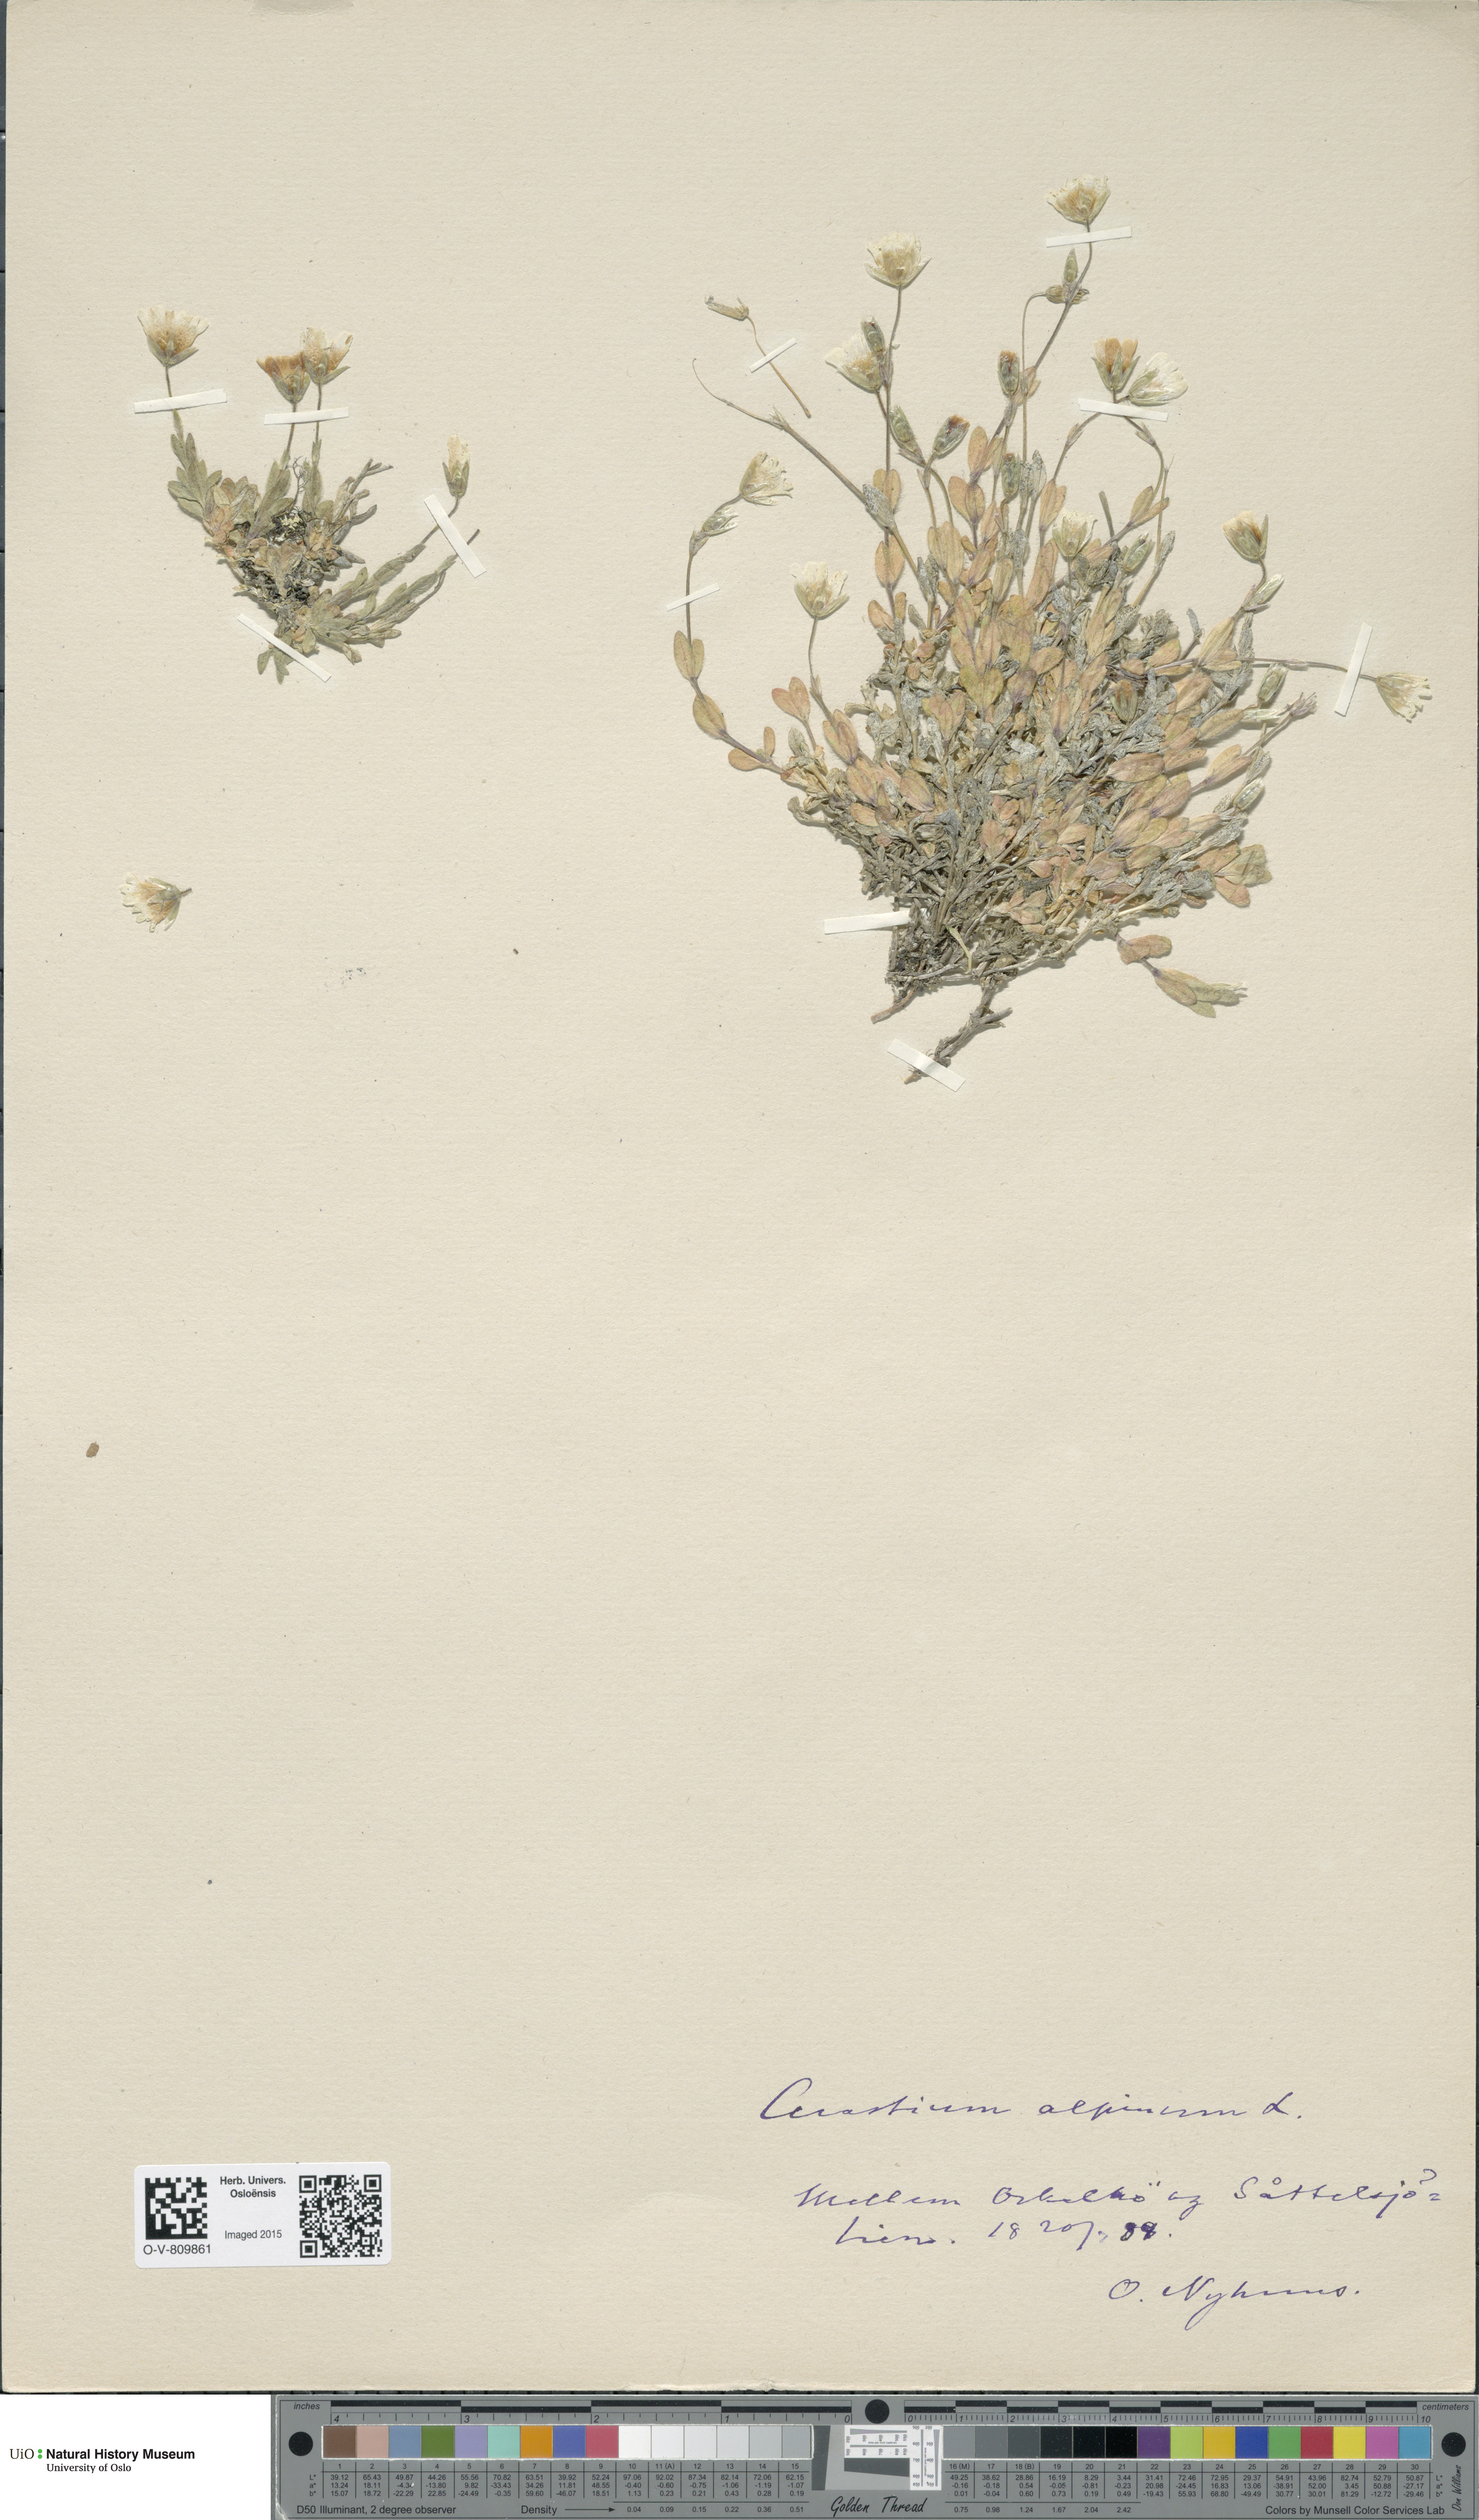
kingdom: Plantae
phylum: Tracheophyta
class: Magnoliopsida
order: Caryophyllales
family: Caryophyllaceae
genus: Cerastium
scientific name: Cerastium alpinum
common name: Alpine mouse-ear
